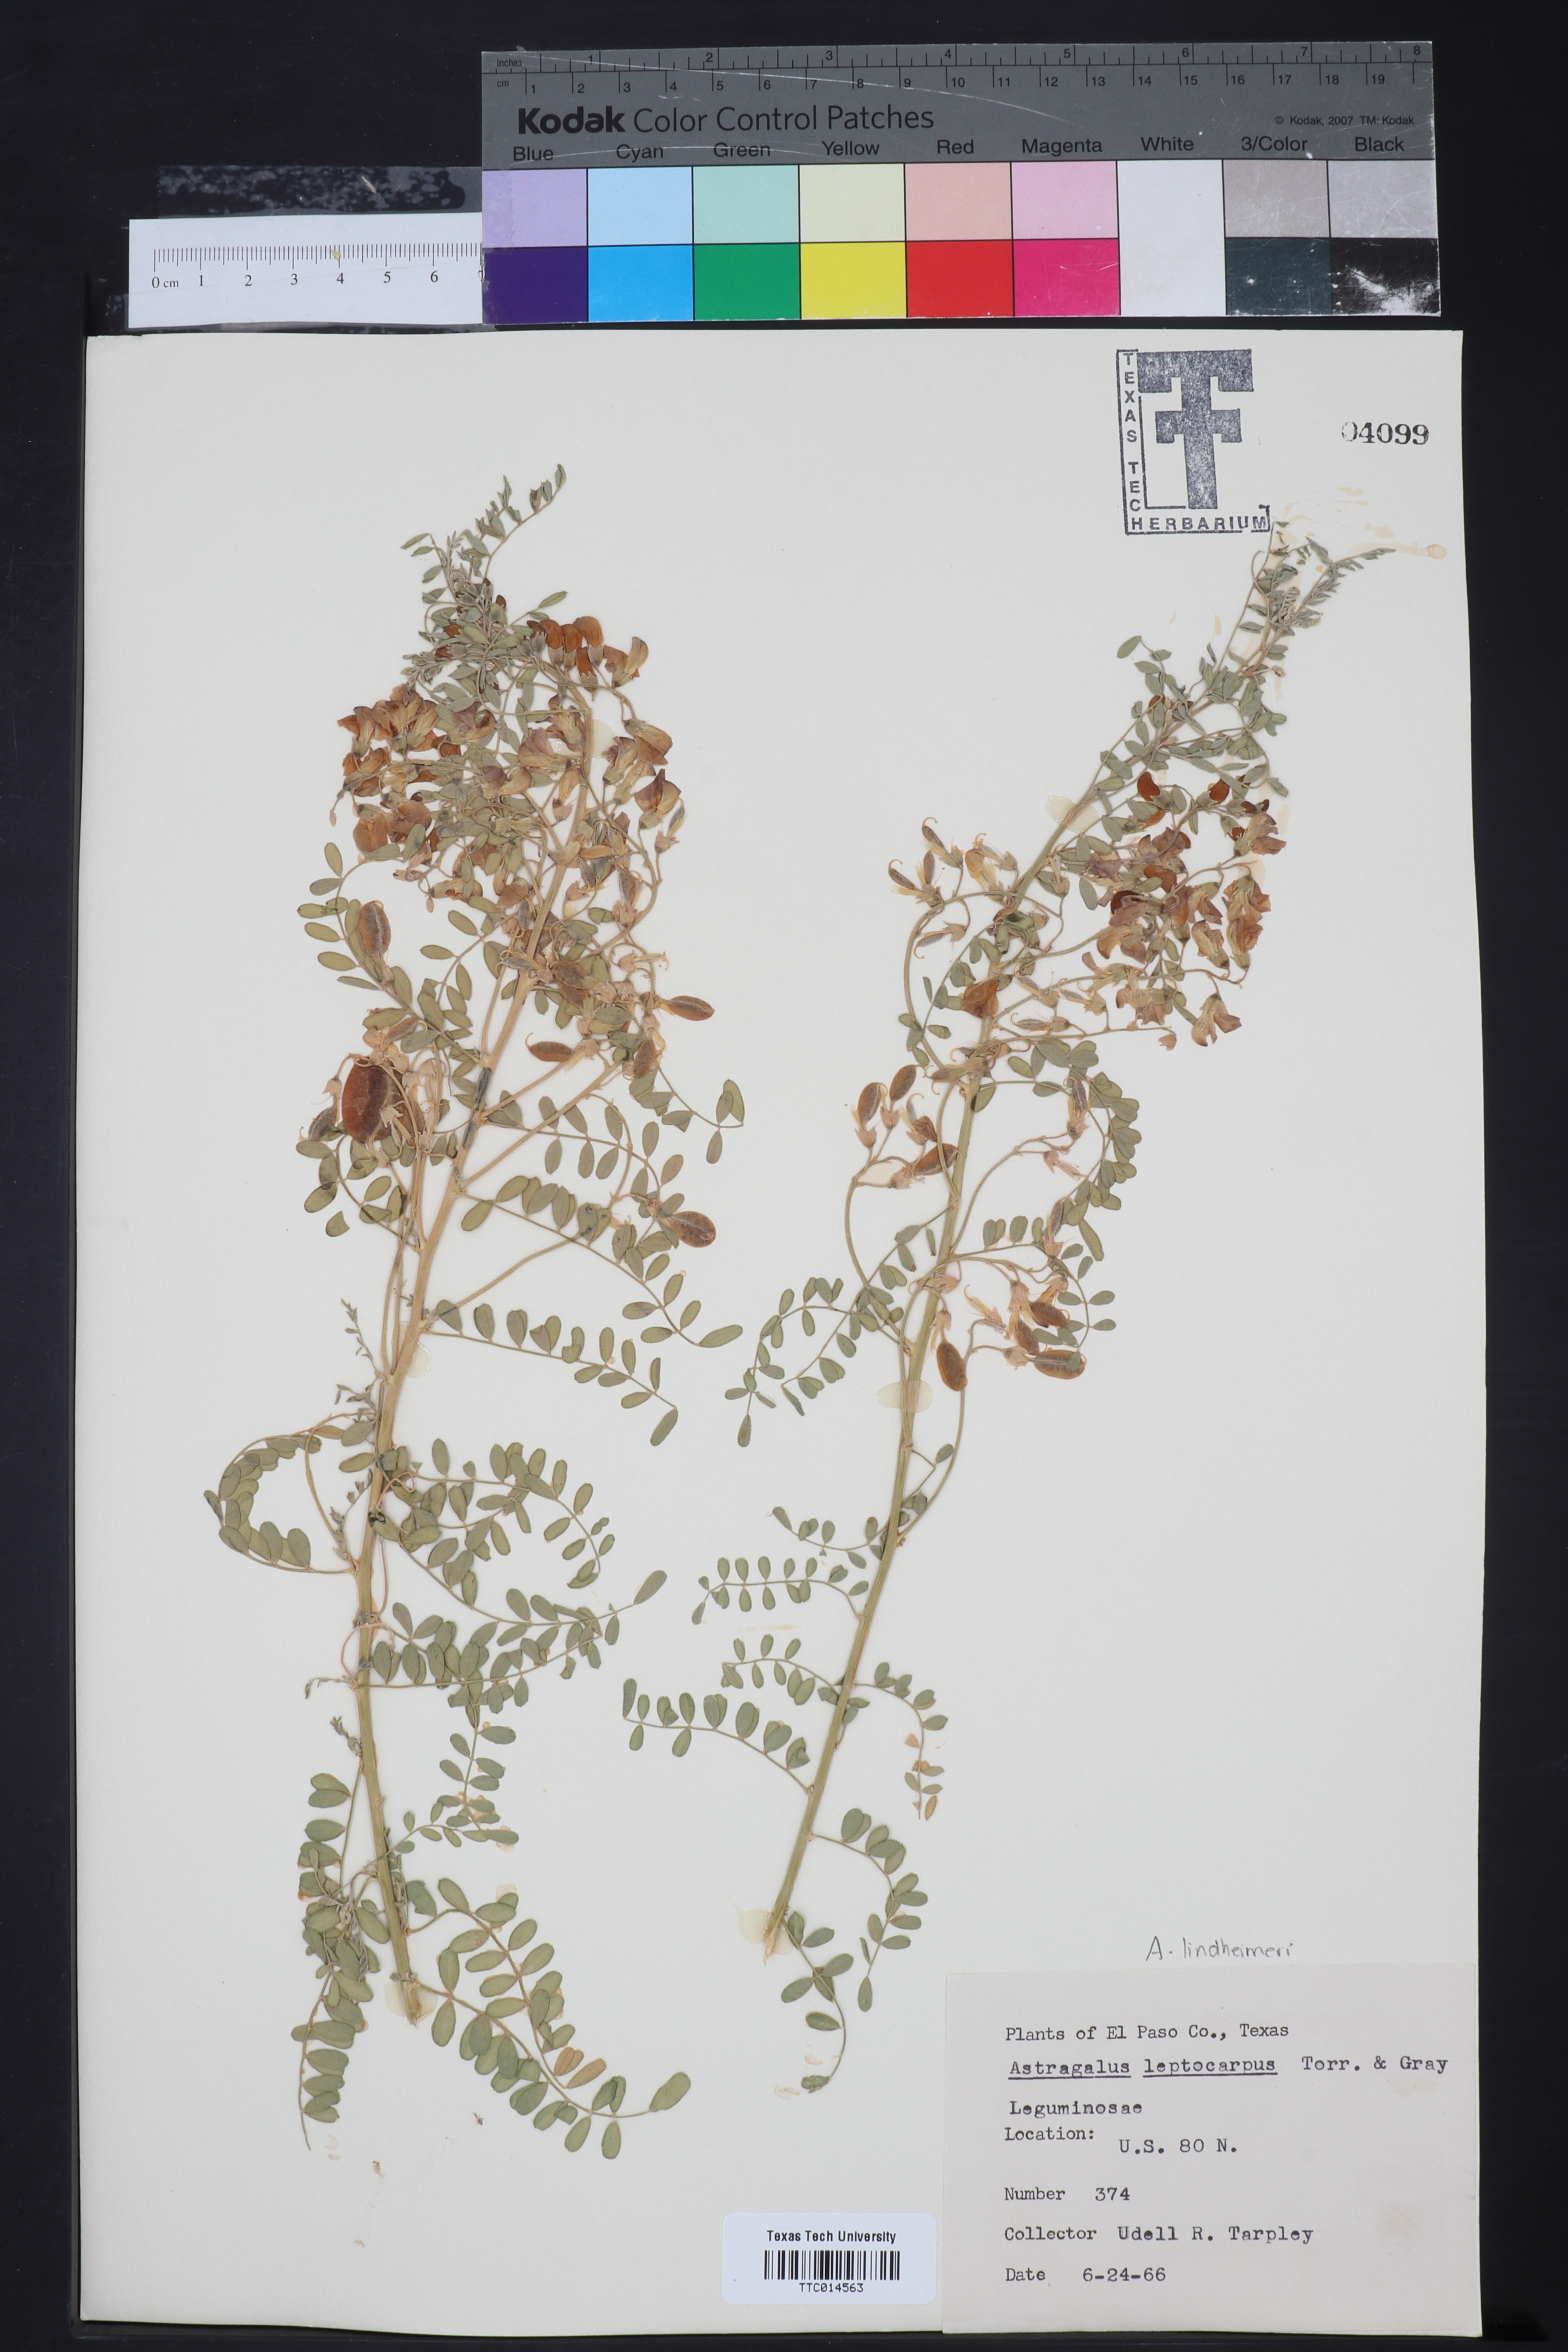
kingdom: Plantae
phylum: Tracheophyta
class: Magnoliopsida
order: Fabales
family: Fabaceae
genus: Astragalus
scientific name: Astragalus leptocarpus
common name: Bodkin milk-vetch
